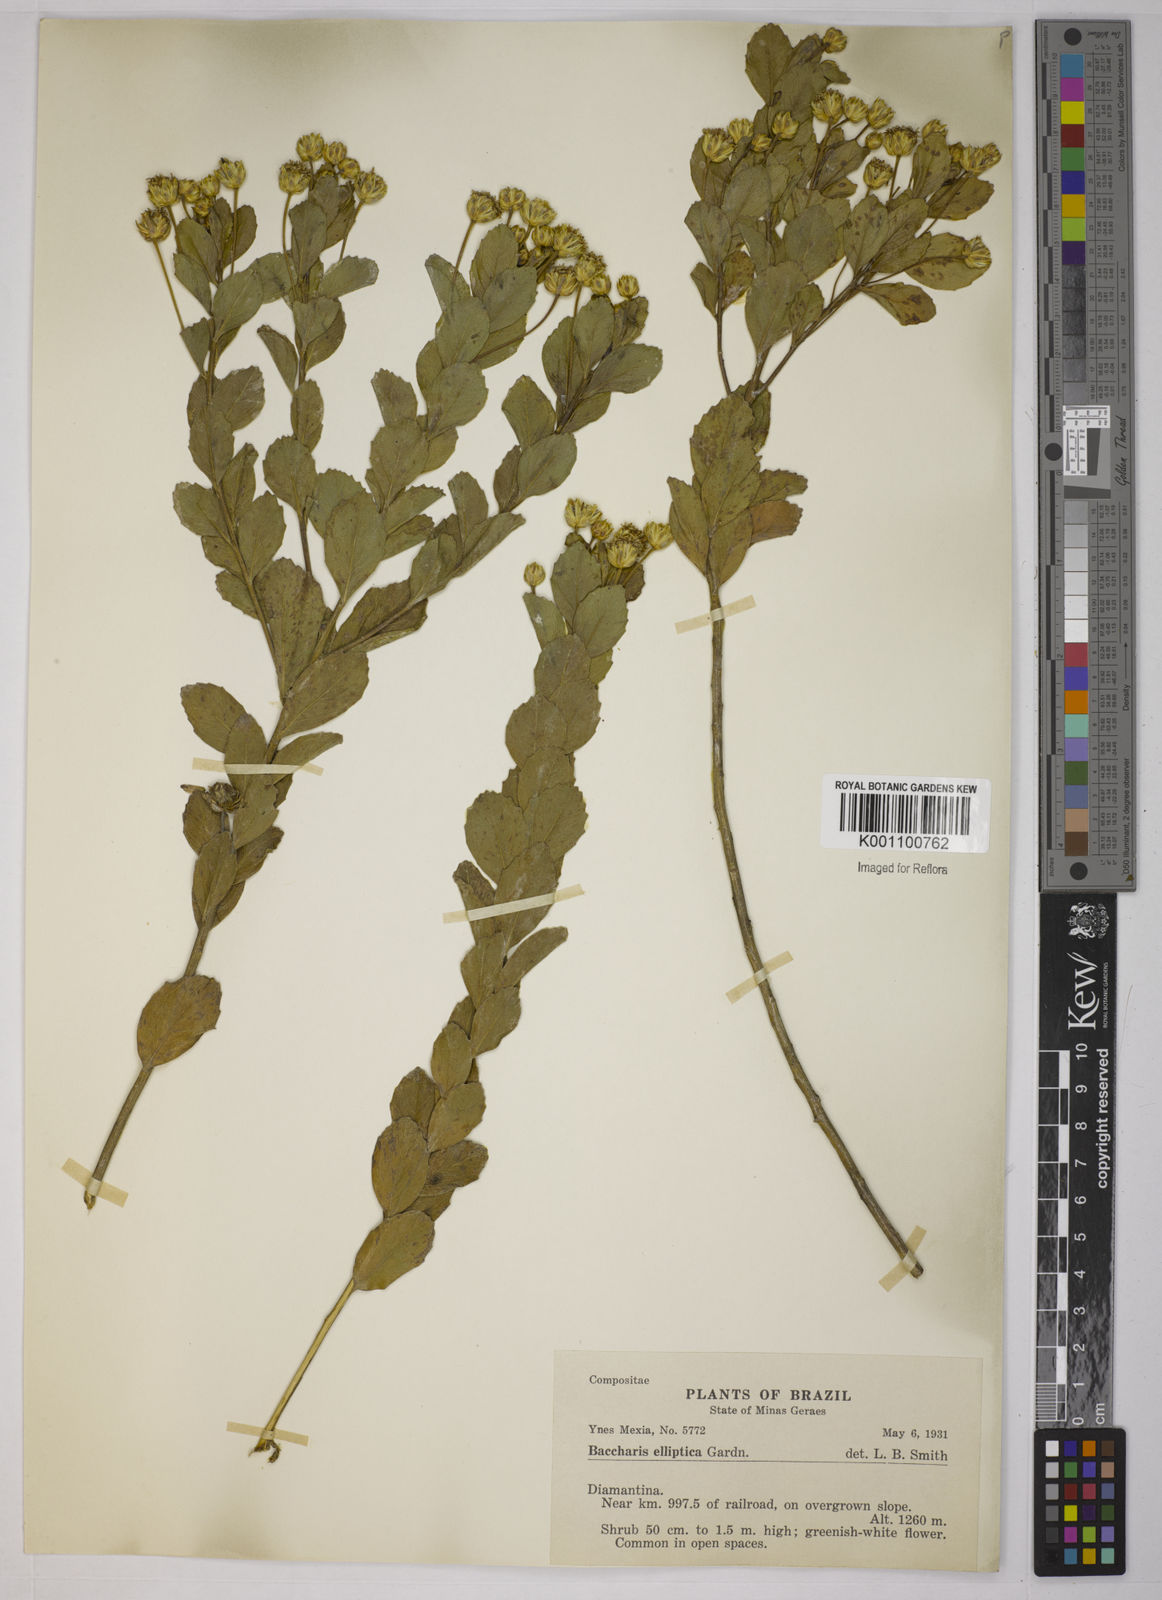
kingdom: Plantae
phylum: Tracheophyta
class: Magnoliopsida
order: Asterales
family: Asteraceae
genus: Baccharis
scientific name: Baccharis elliptica
